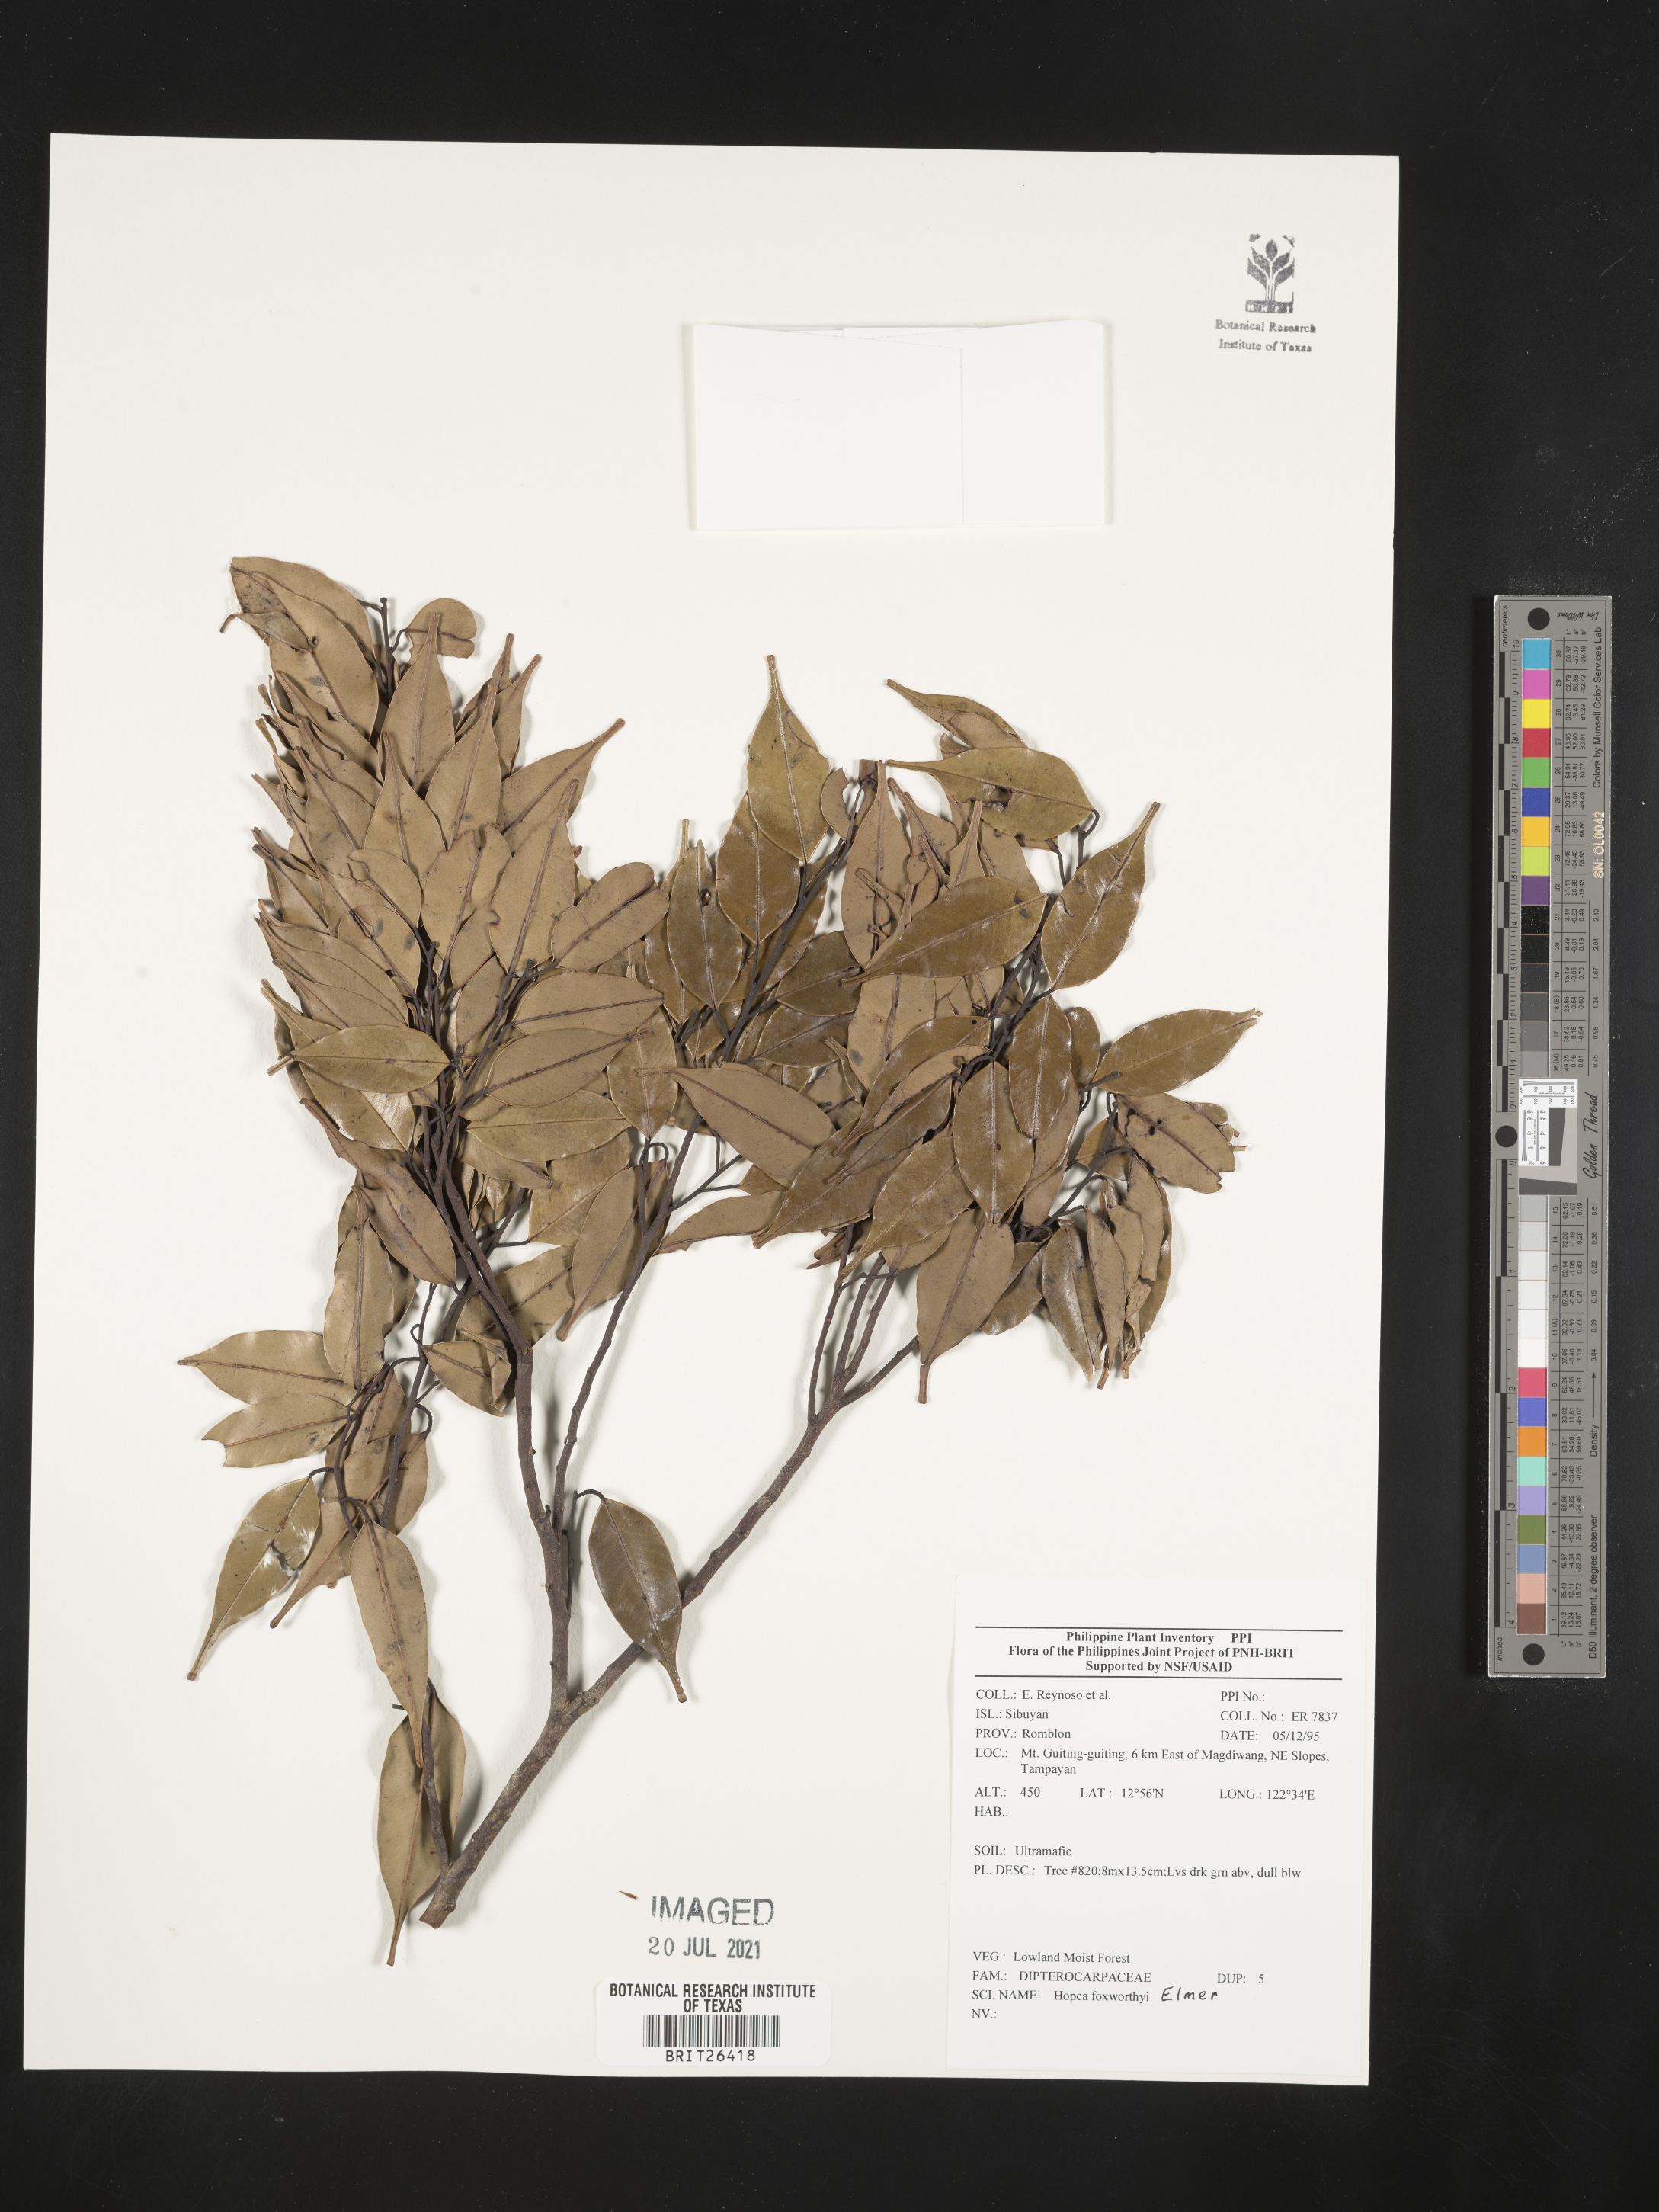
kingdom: Plantae
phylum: Tracheophyta
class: Magnoliopsida
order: Malvales
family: Dipterocarpaceae
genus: Hopea
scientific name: Hopea foxworthyi
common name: Dalingdingan
